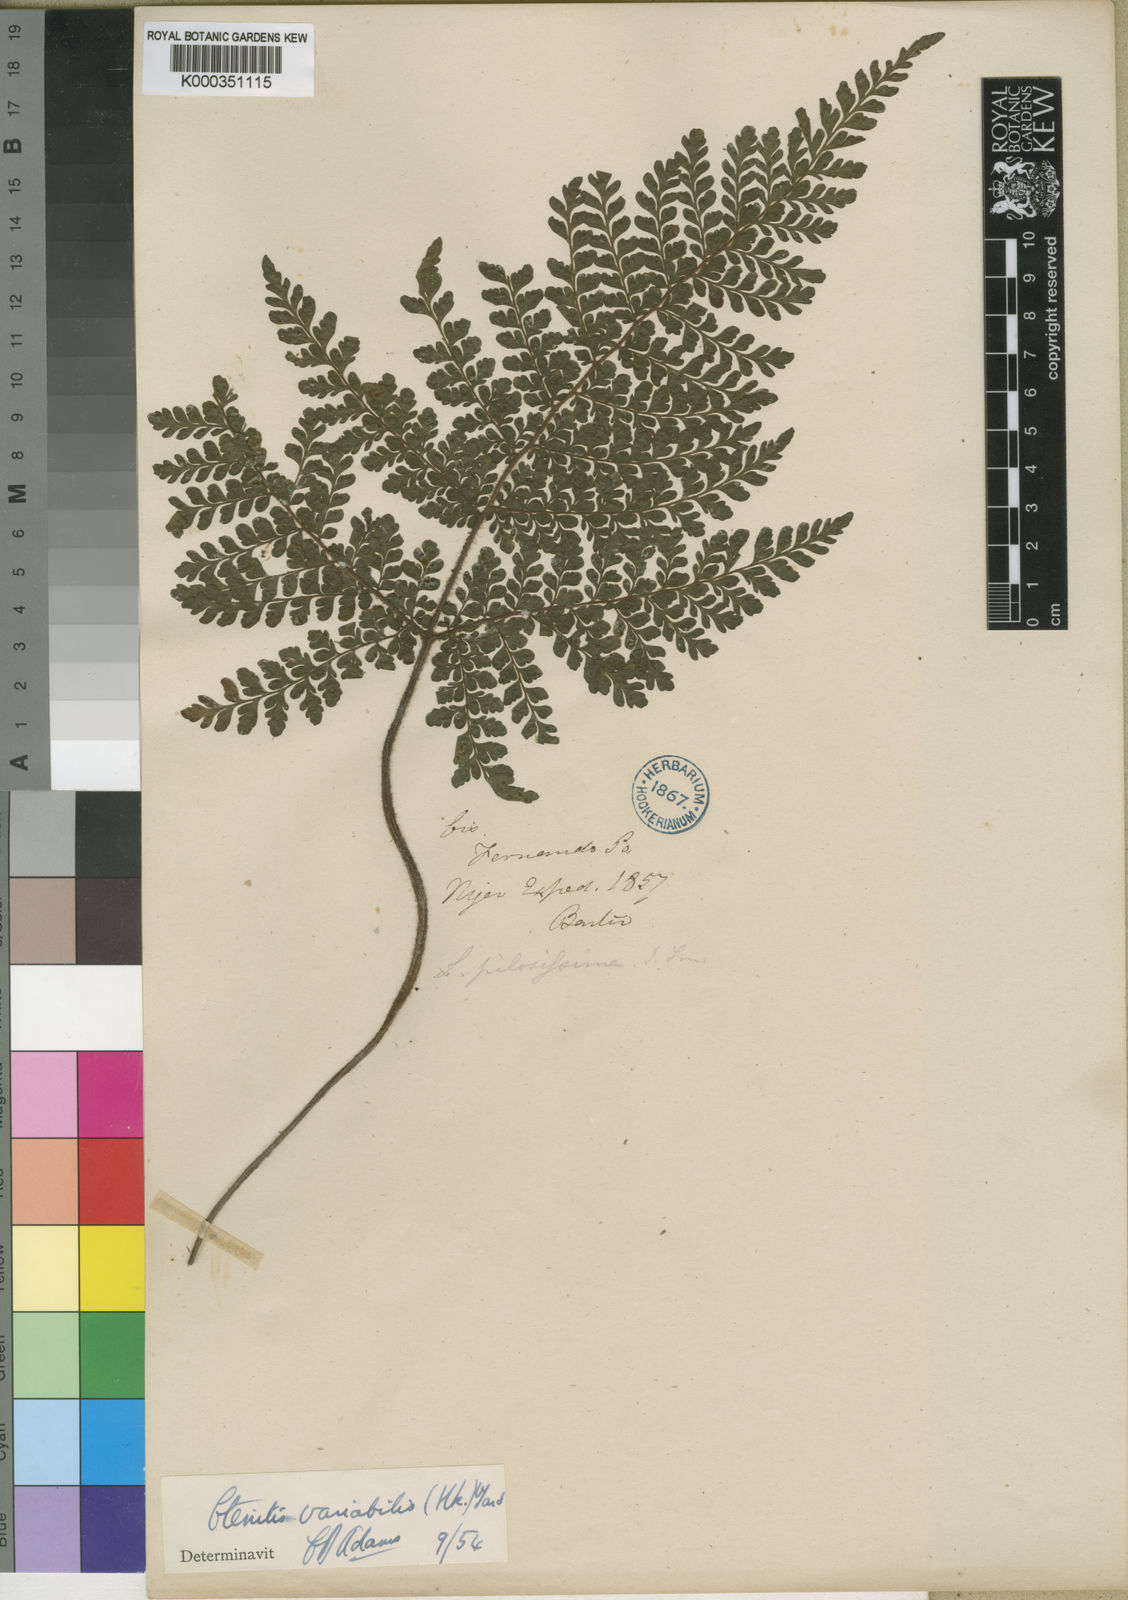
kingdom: Plantae
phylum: Tracheophyta
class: Polypodiopsida
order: Polypodiales
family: Tectariaceae
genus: Triplophyllum
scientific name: Triplophyllum pilosissimum
